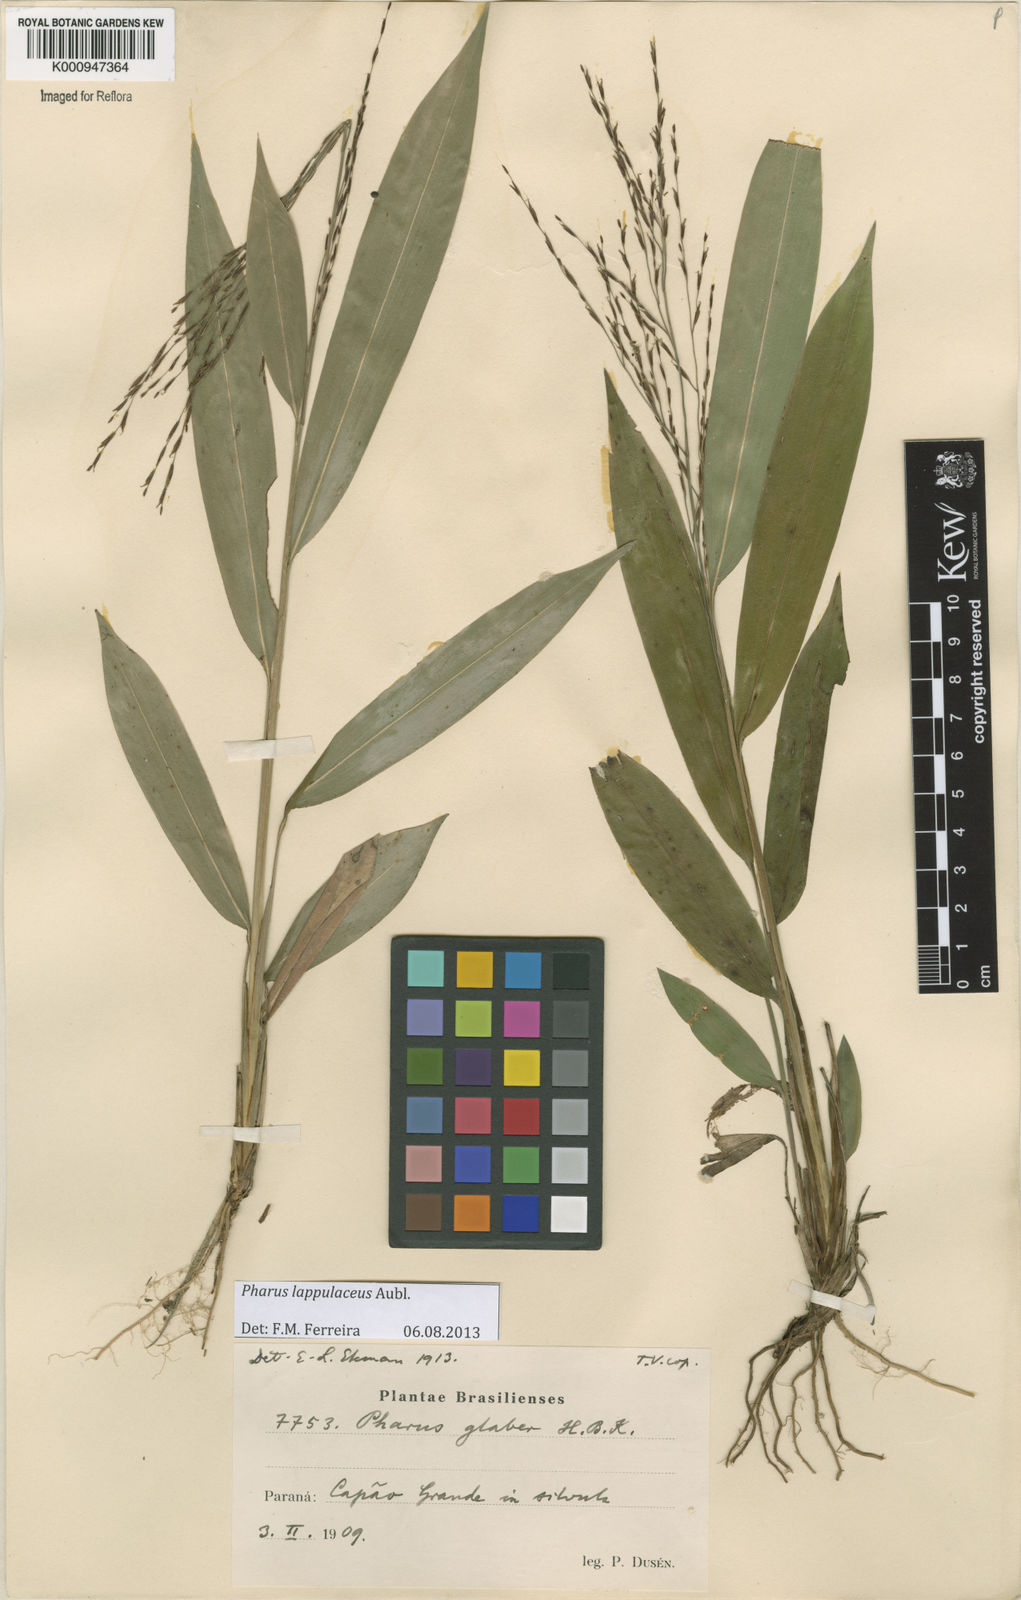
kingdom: Plantae
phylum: Tracheophyta
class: Liliopsida
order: Poales
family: Poaceae
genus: Pharus
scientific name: Pharus lappulaceus
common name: Creeping leafstalk grass
